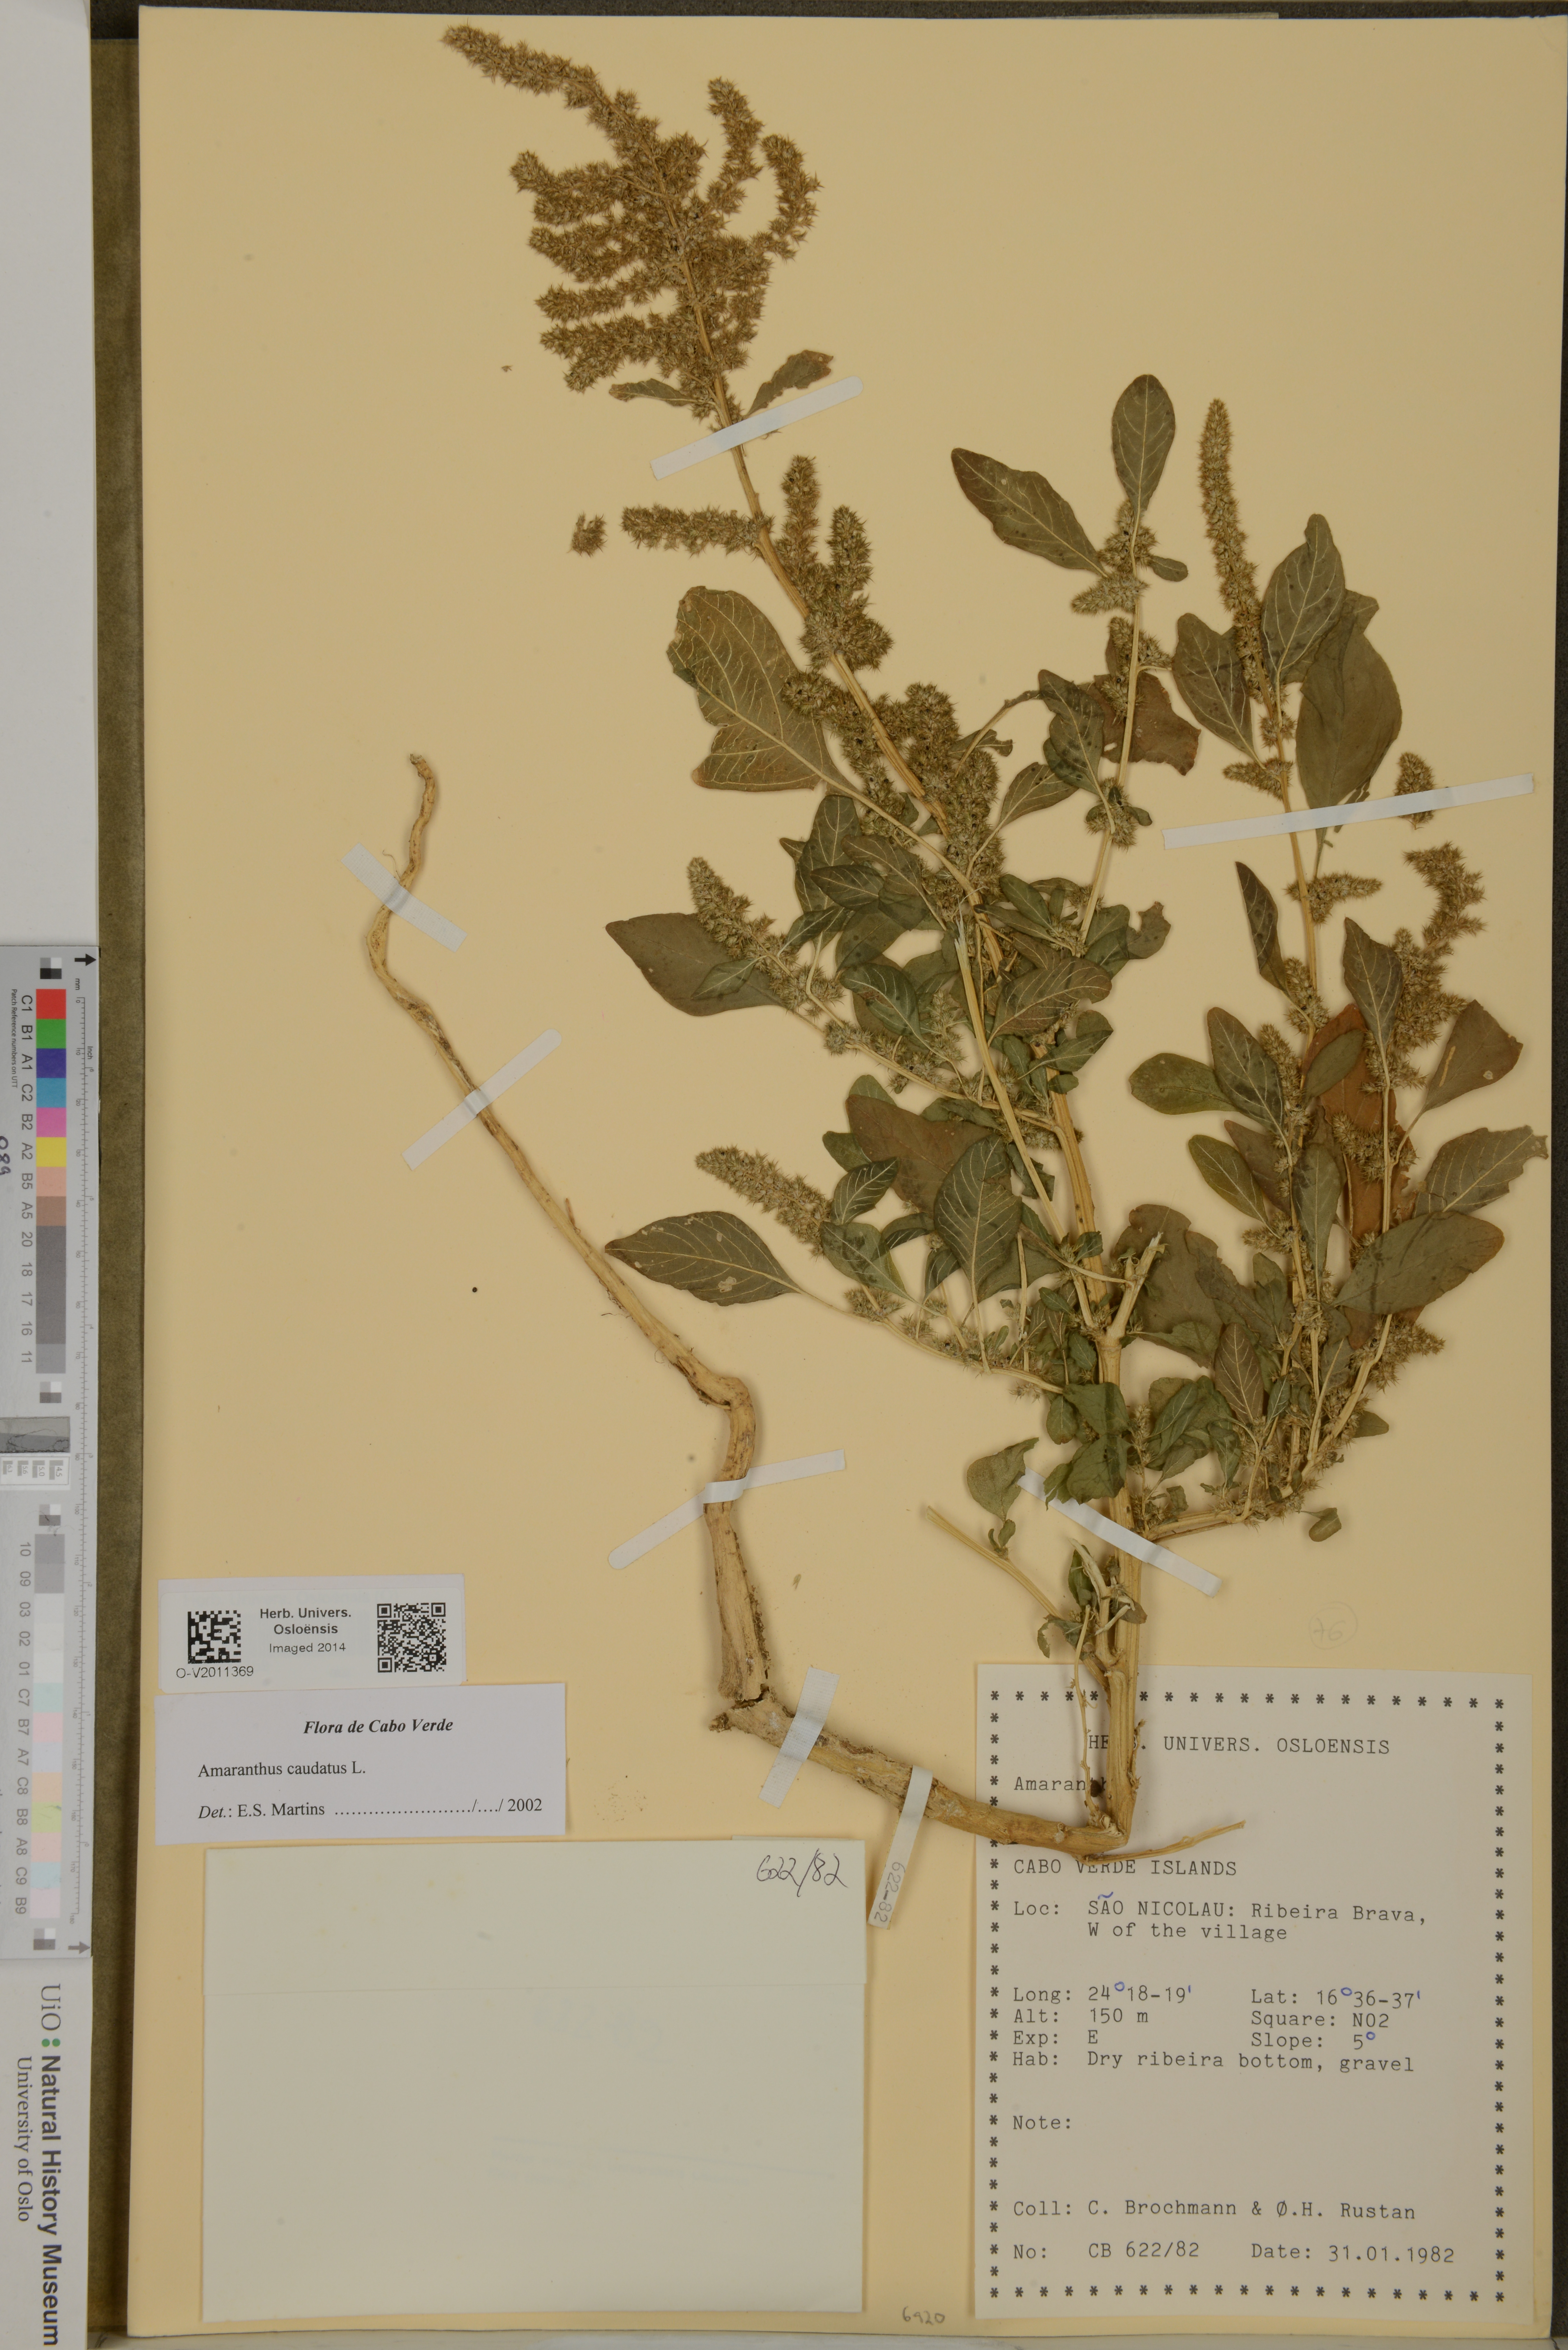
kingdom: Plantae
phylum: Tracheophyta
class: Magnoliopsida
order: Caryophyllales
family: Amaranthaceae
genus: Amaranthus
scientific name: Amaranthus caudatus
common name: Love-lies-bleeding
